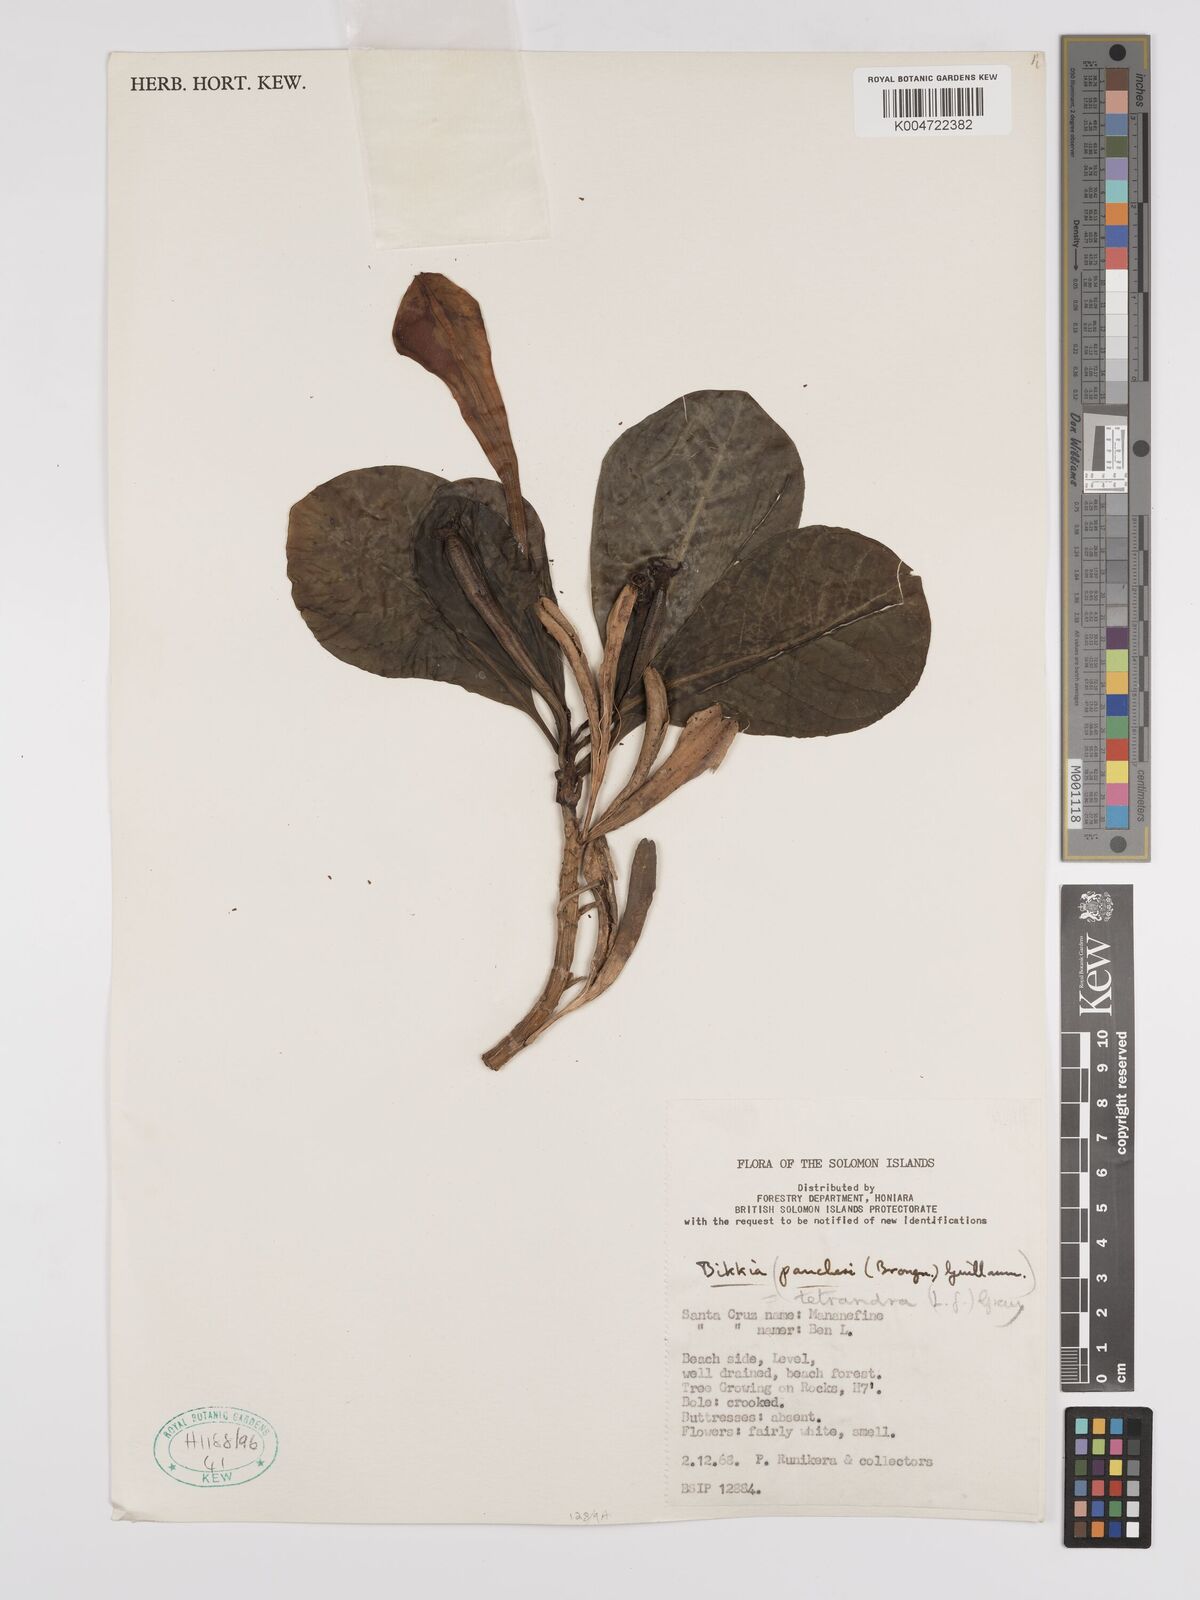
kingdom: Plantae
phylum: Tracheophyta
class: Magnoliopsida
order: Gentianales
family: Rubiaceae
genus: Bikkia
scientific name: Bikkia
